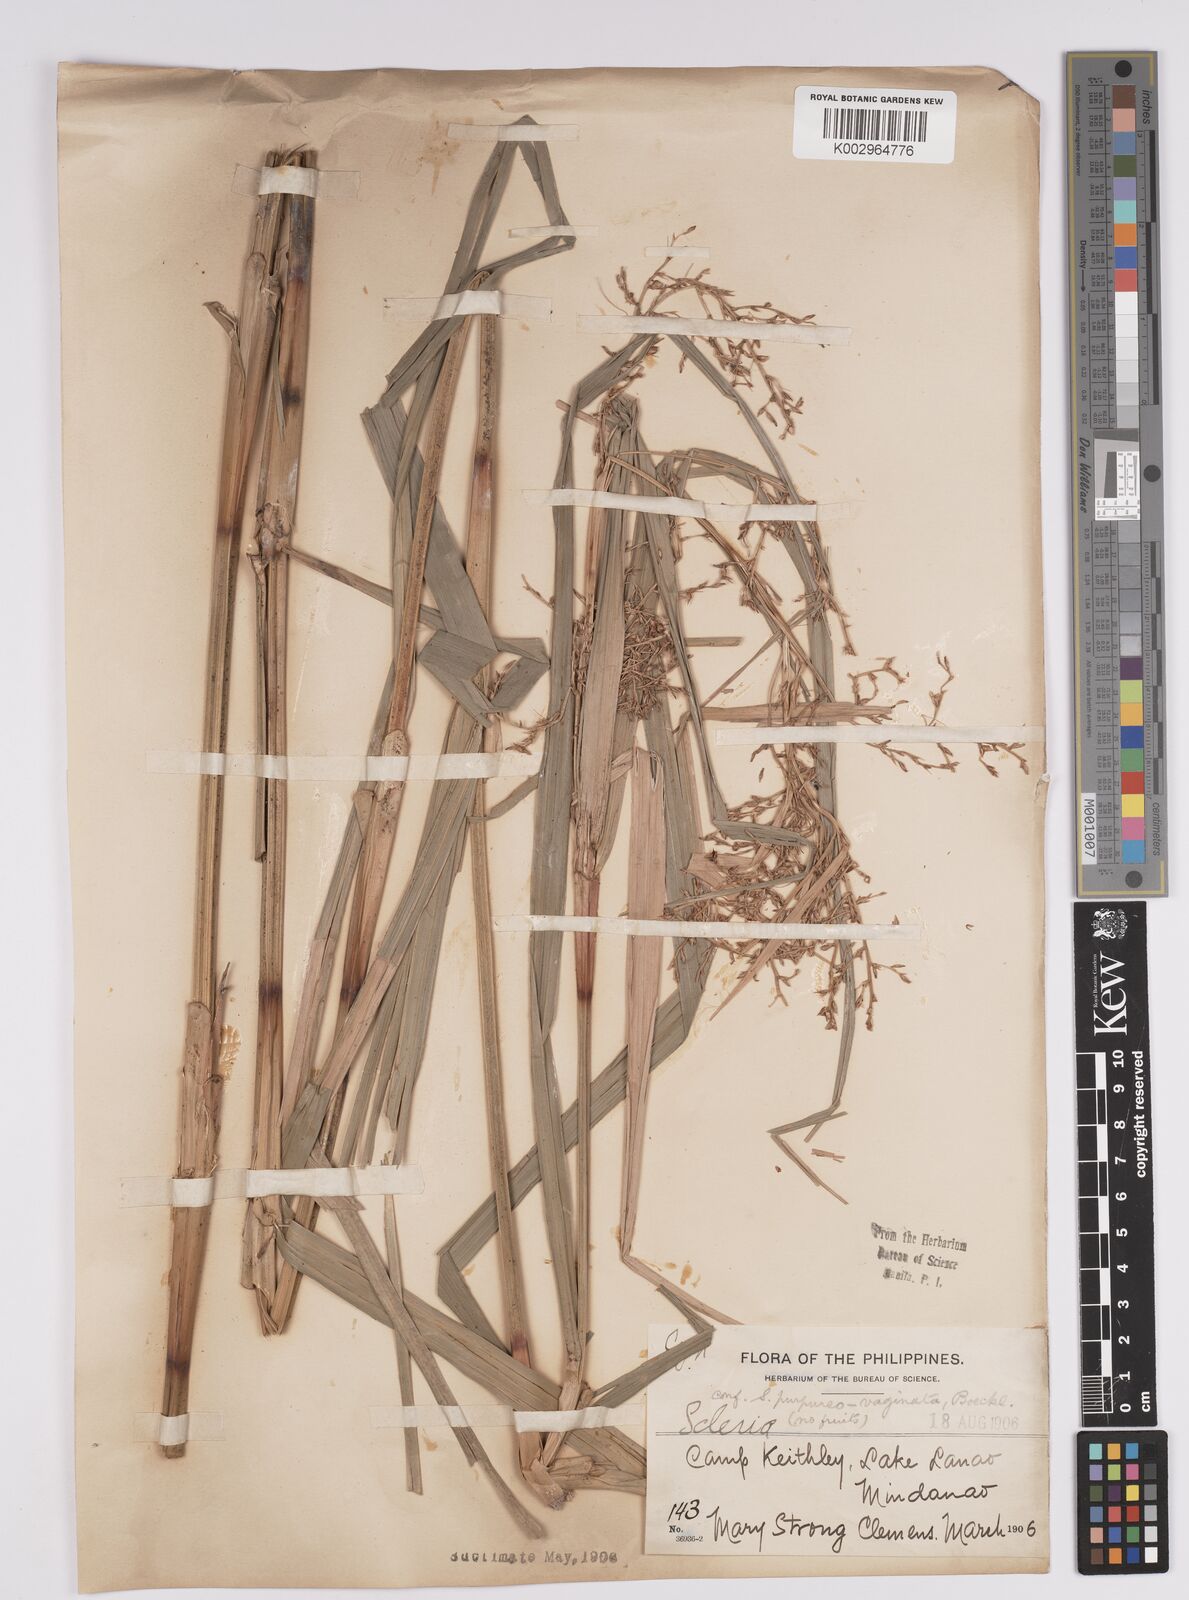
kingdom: Plantae
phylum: Tracheophyta
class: Liliopsida
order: Poales
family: Cyperaceae
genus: Scleria
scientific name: Scleria scrobiculata
